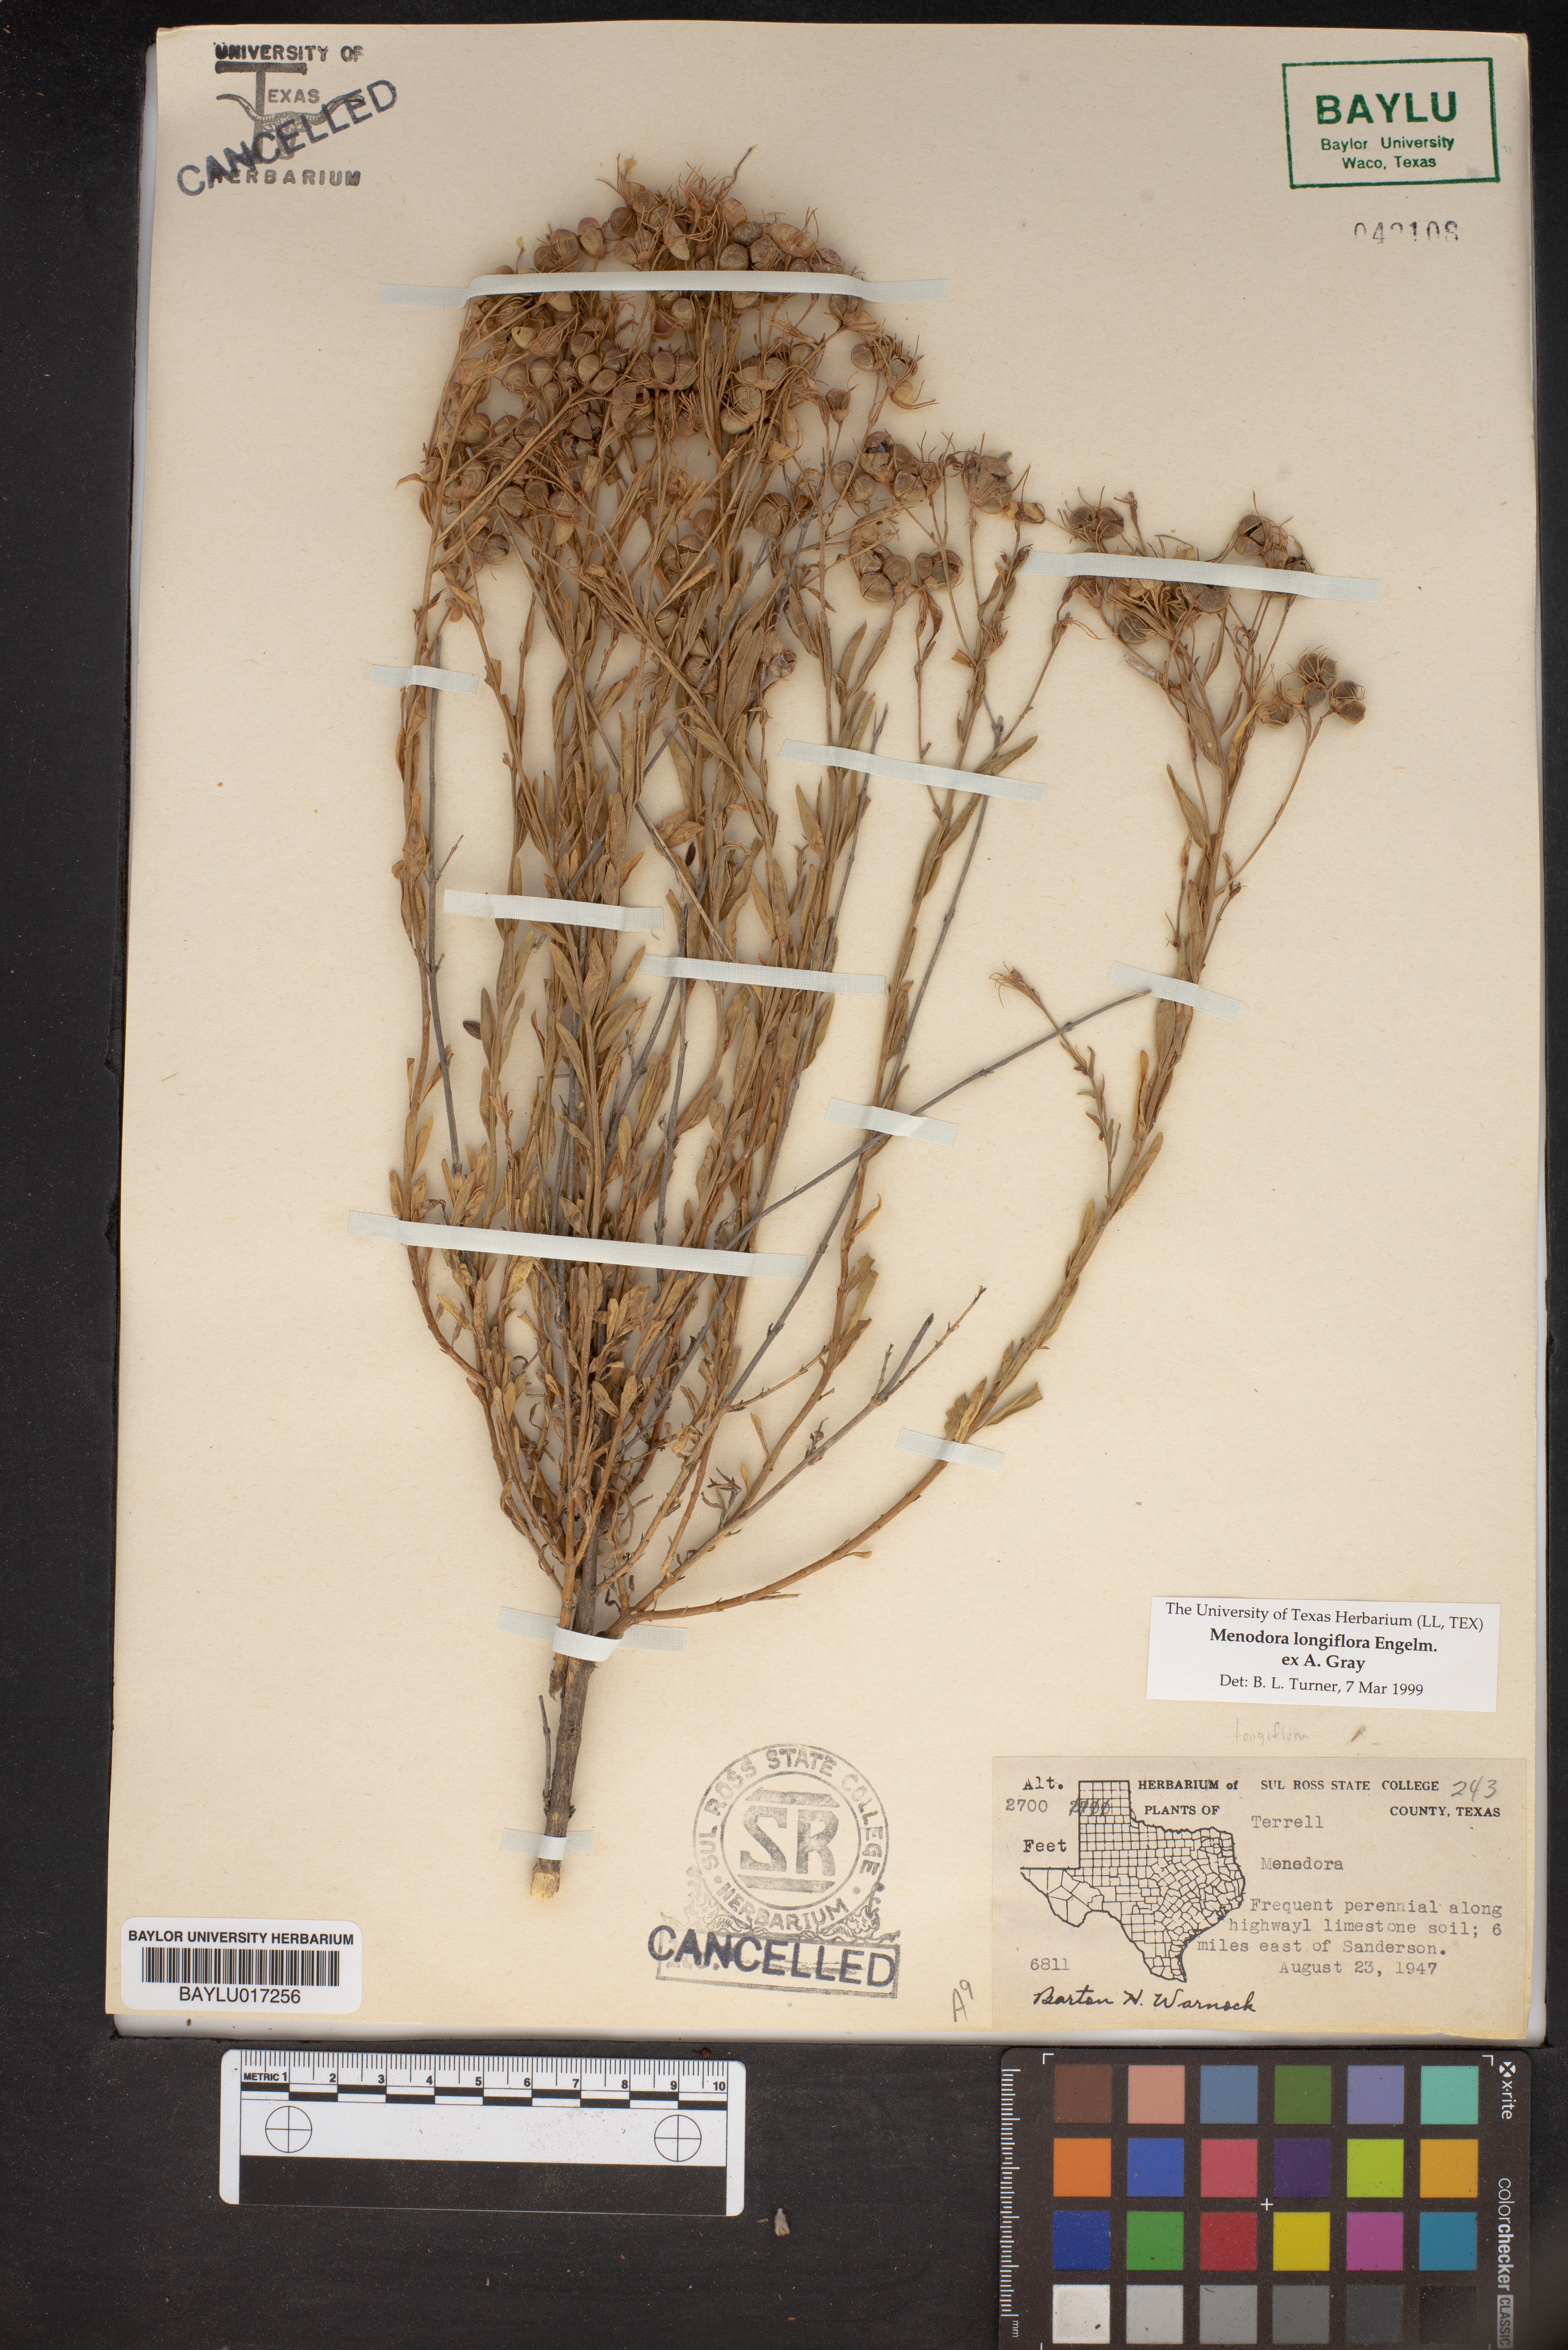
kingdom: Plantae
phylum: Tracheophyta
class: Magnoliopsida
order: Lamiales
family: Oleaceae
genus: Menodora
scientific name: Menodora longiflora
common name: Showy menodora
